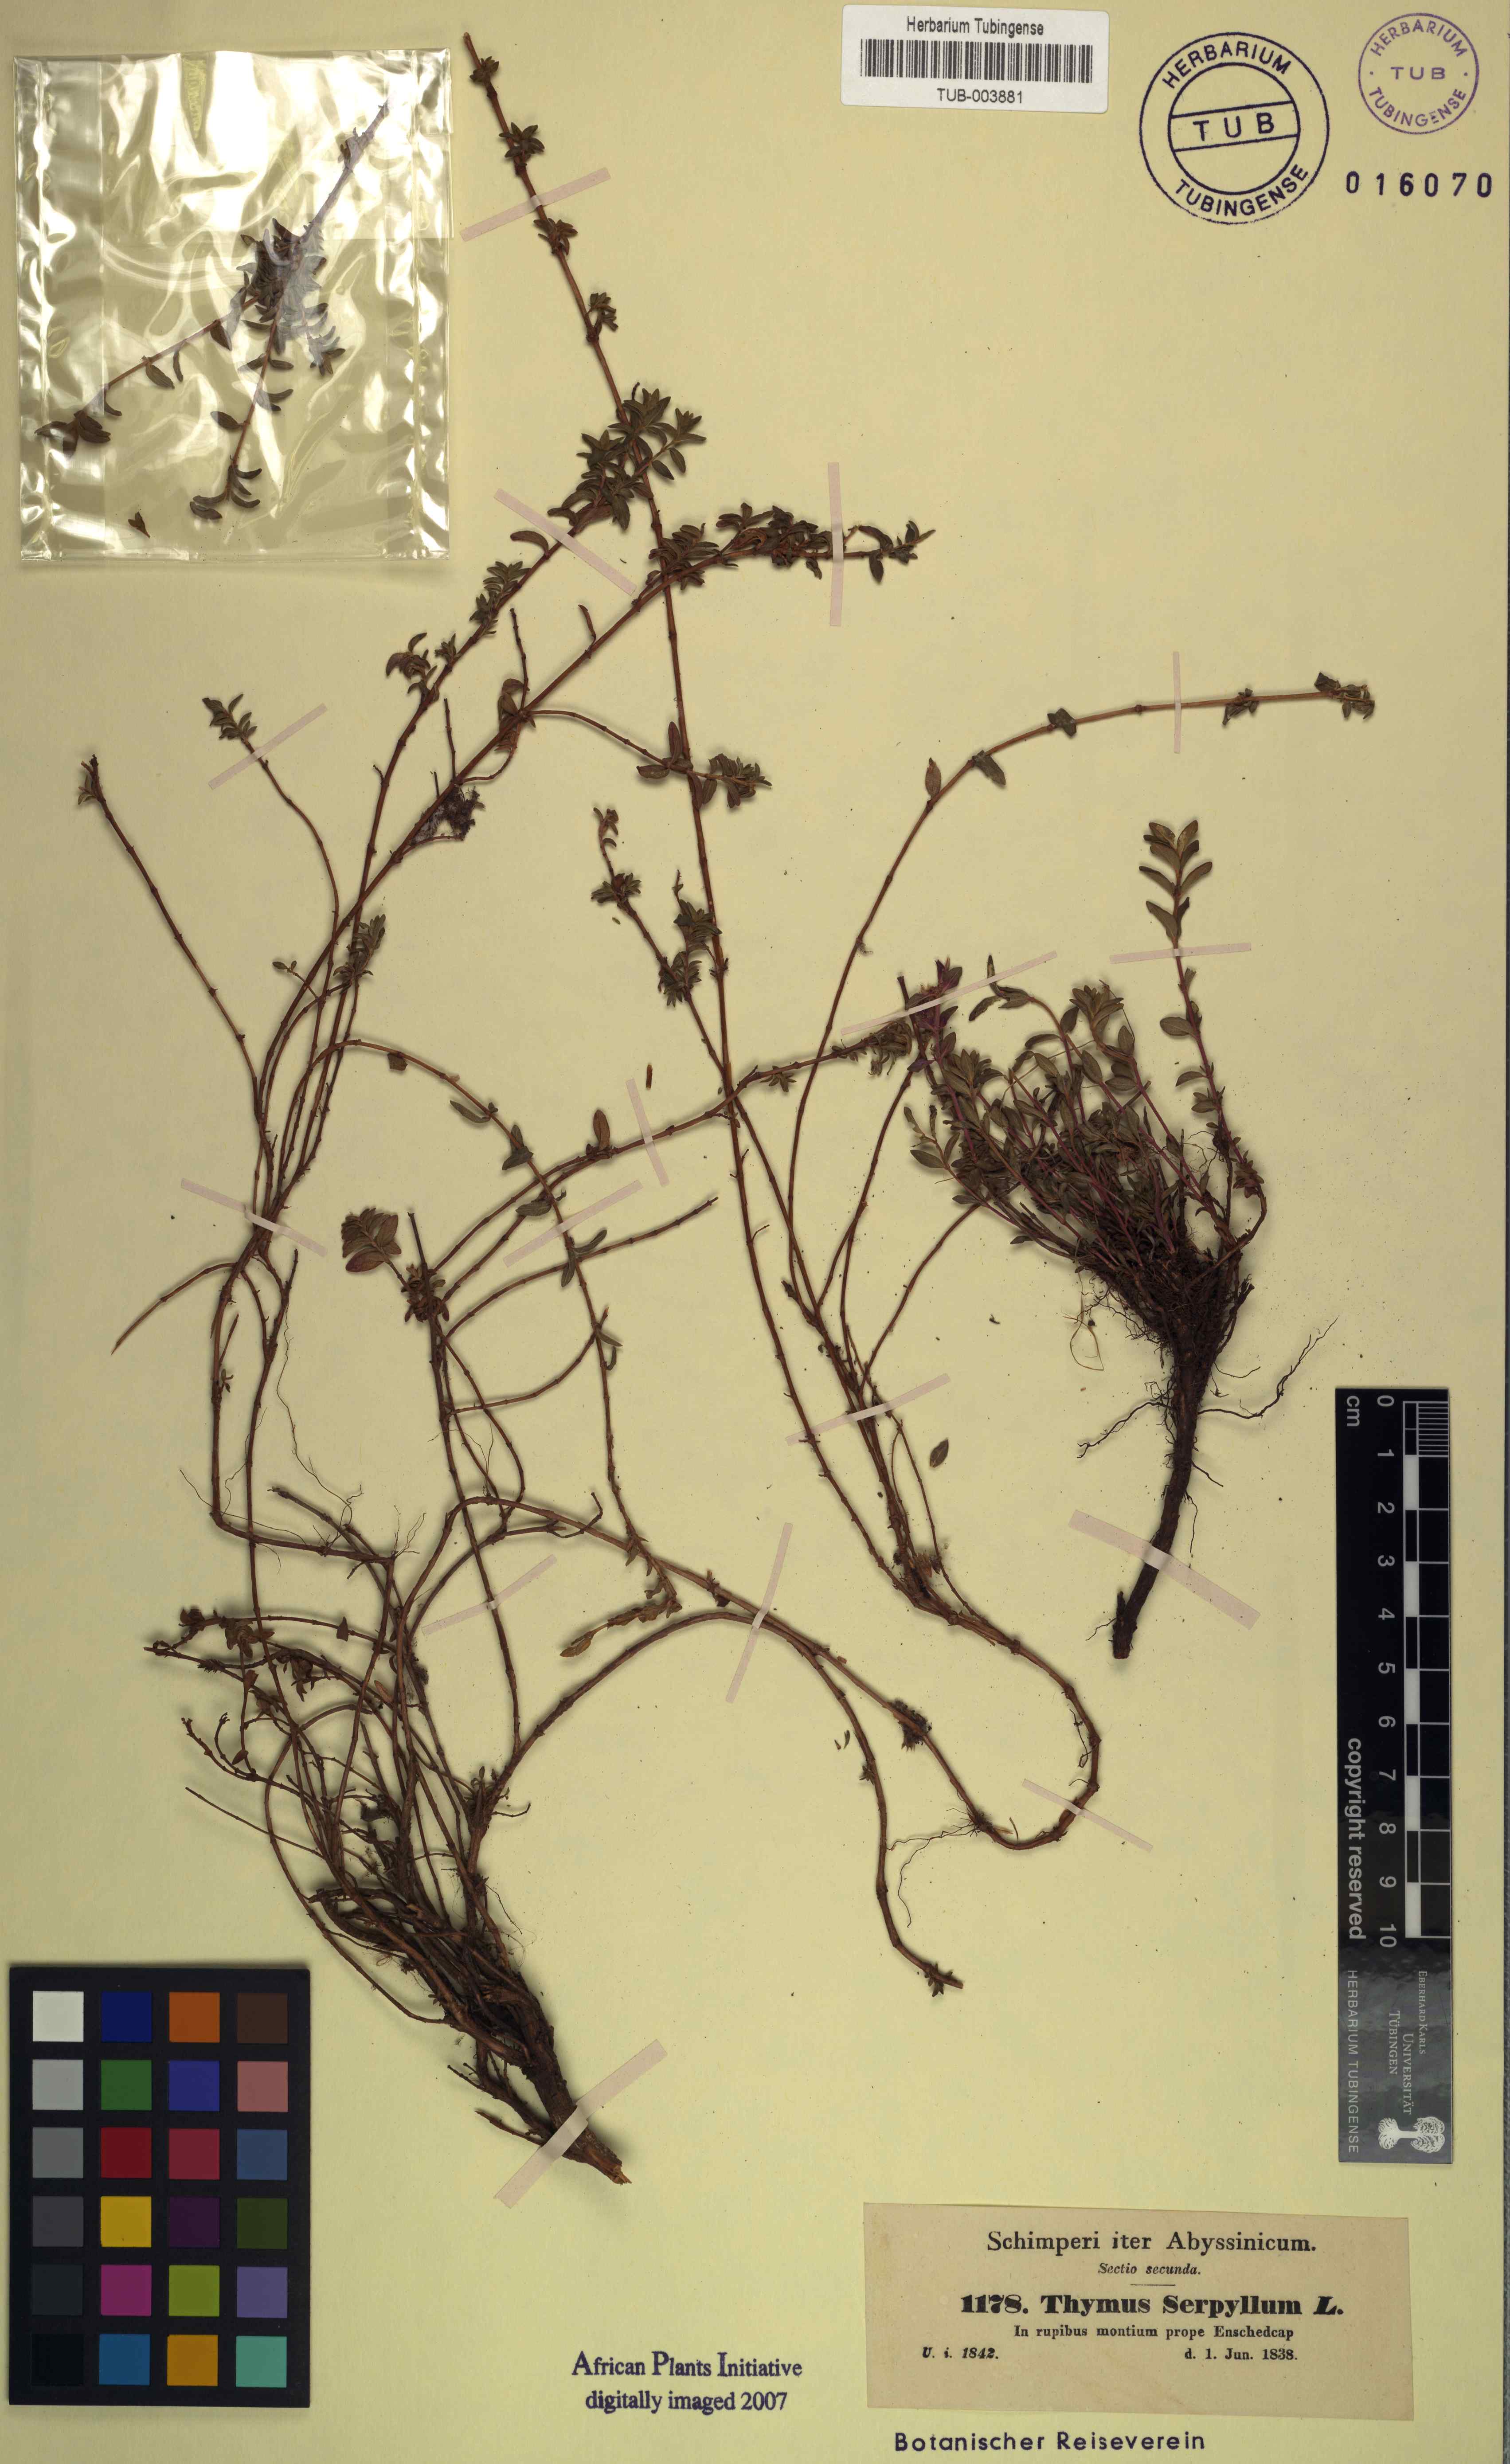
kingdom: Plantae
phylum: Tracheophyta
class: Magnoliopsida
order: Lamiales
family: Lamiaceae
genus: Thymus
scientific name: Thymus serpyllum
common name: Breckland thyme
